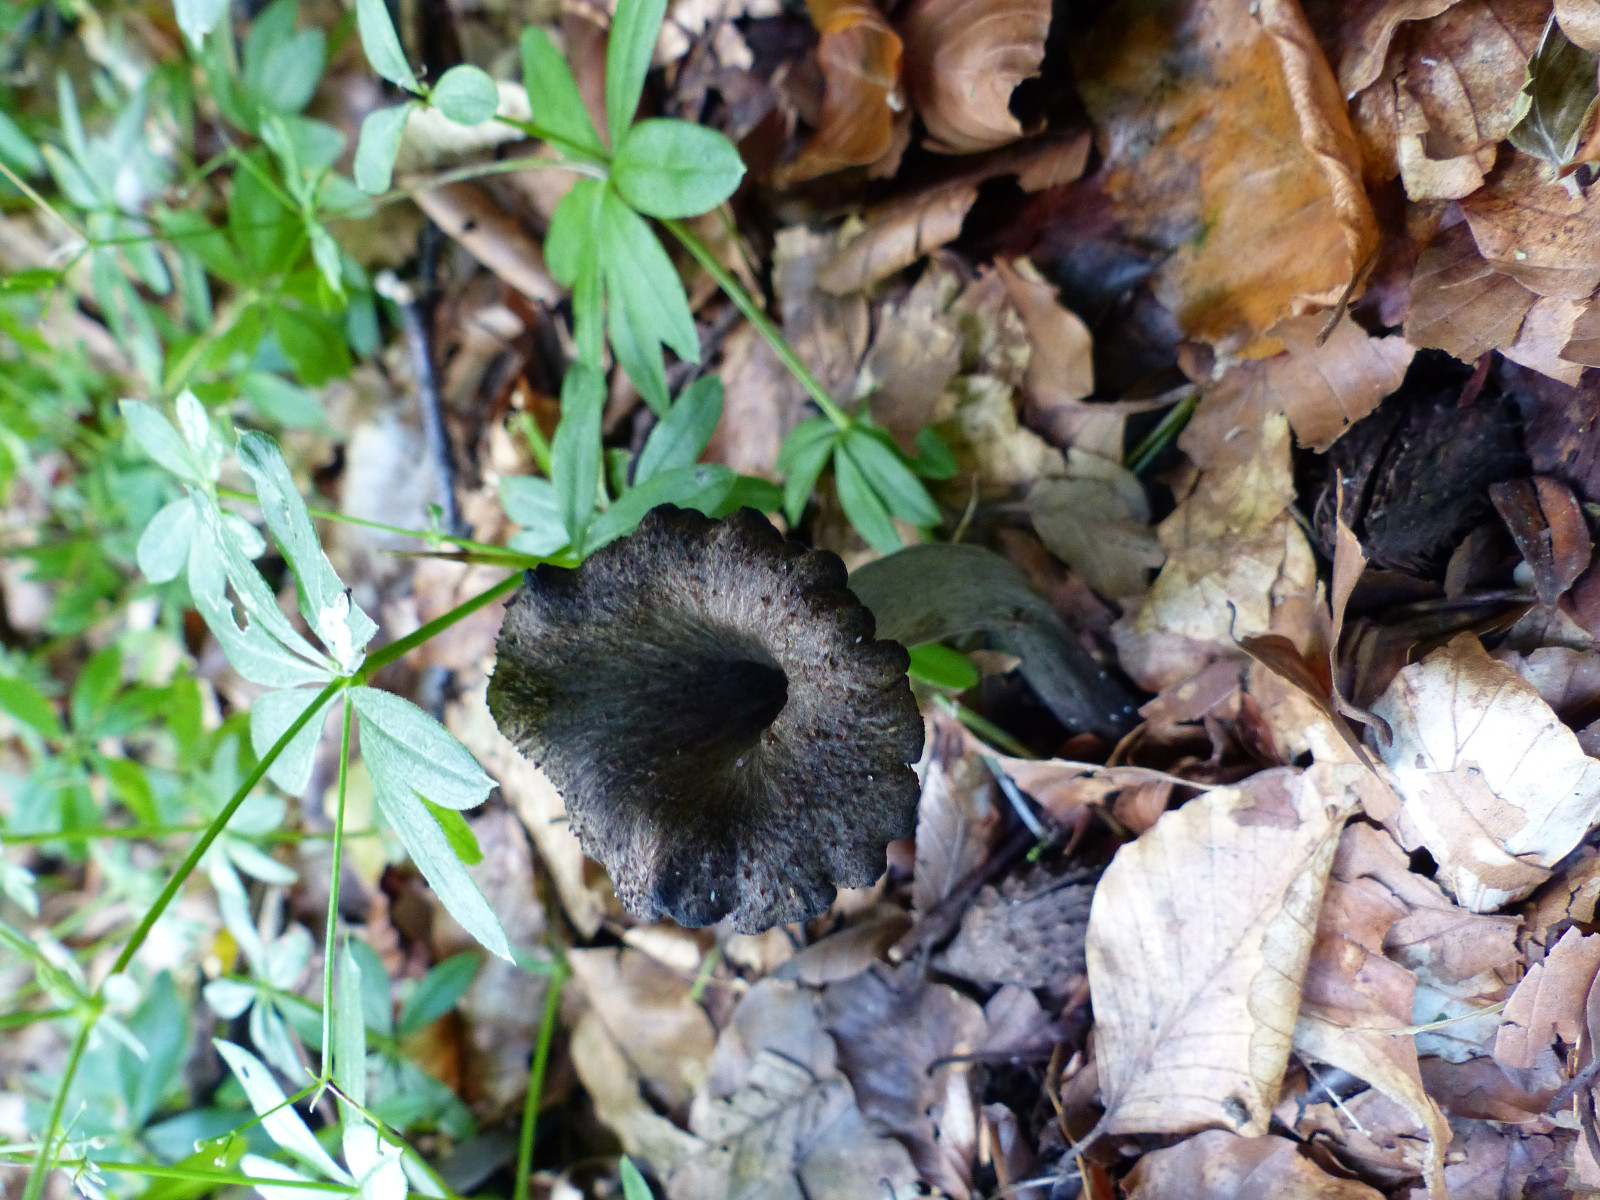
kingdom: Fungi
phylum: Basidiomycota
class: Agaricomycetes
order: Cantharellales
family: Hydnaceae
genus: Craterellus
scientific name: Craterellus cornucopioides
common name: trompetsvamp
